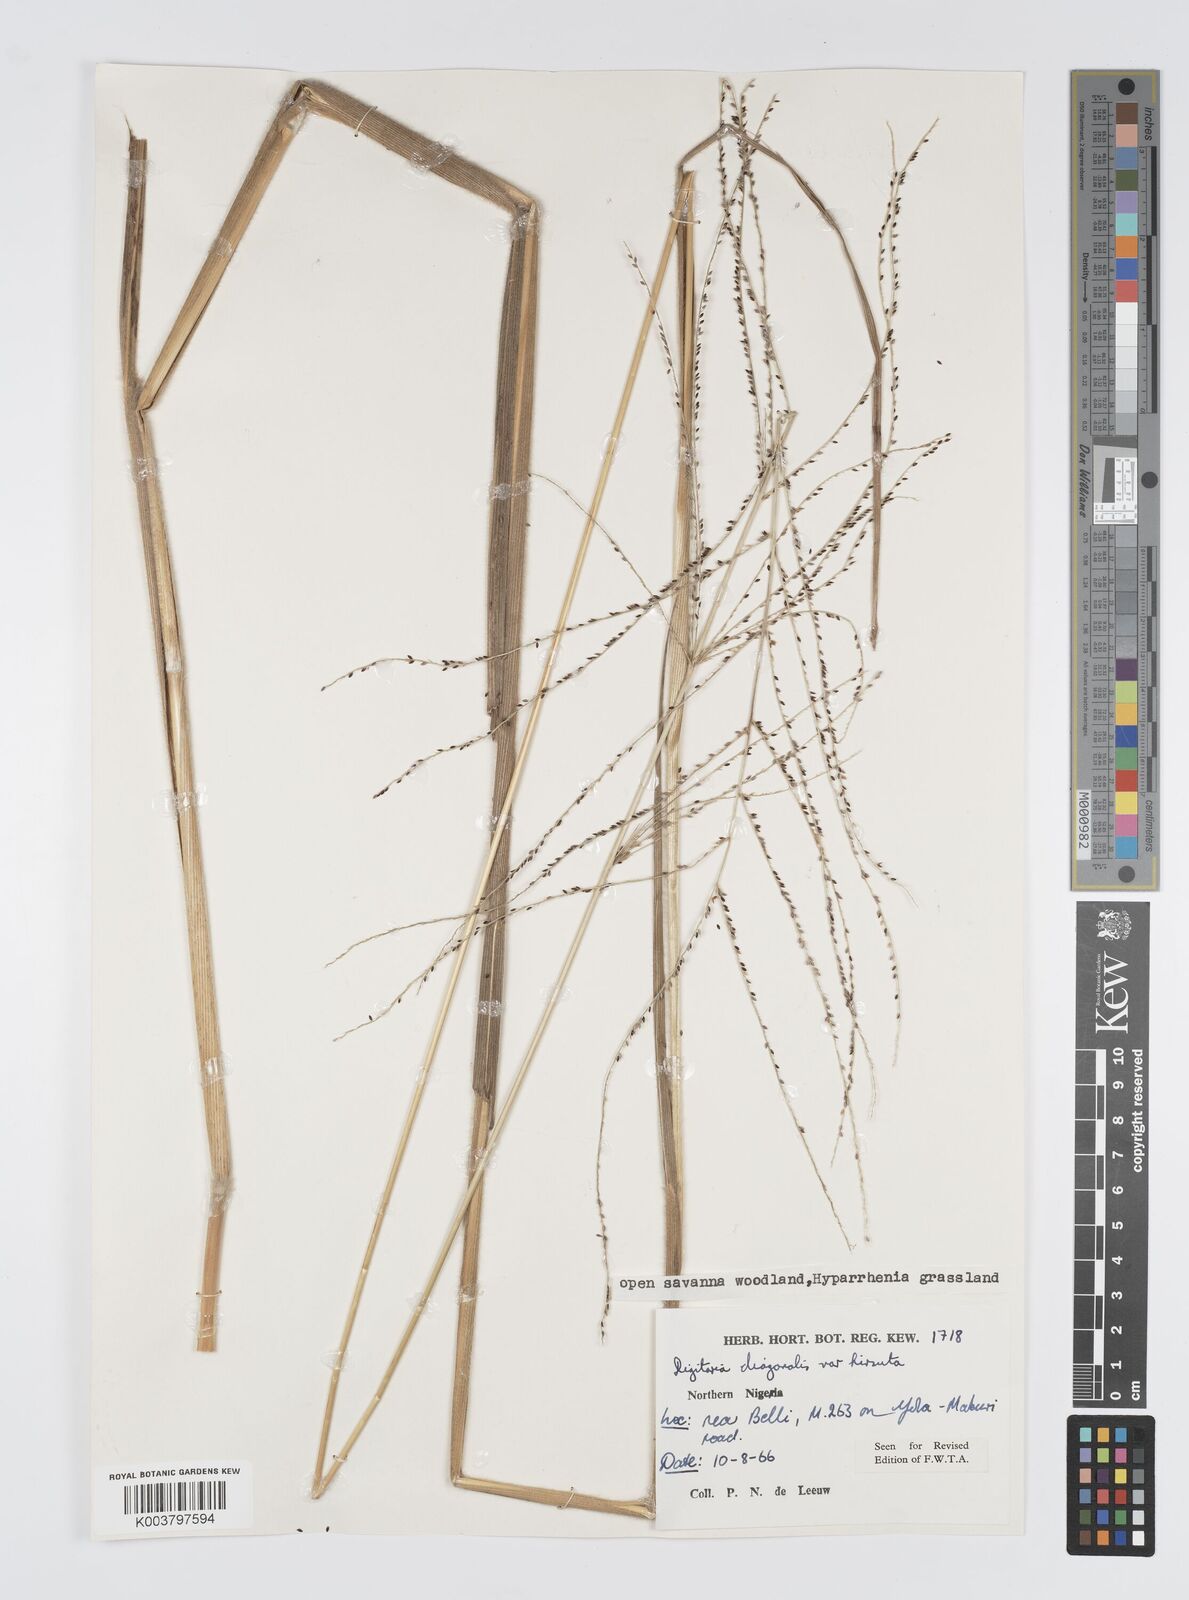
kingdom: Plantae
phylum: Tracheophyta
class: Liliopsida
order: Poales
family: Poaceae
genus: Digitaria
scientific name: Digitaria diagonalis
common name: Brown-seed finger grass
